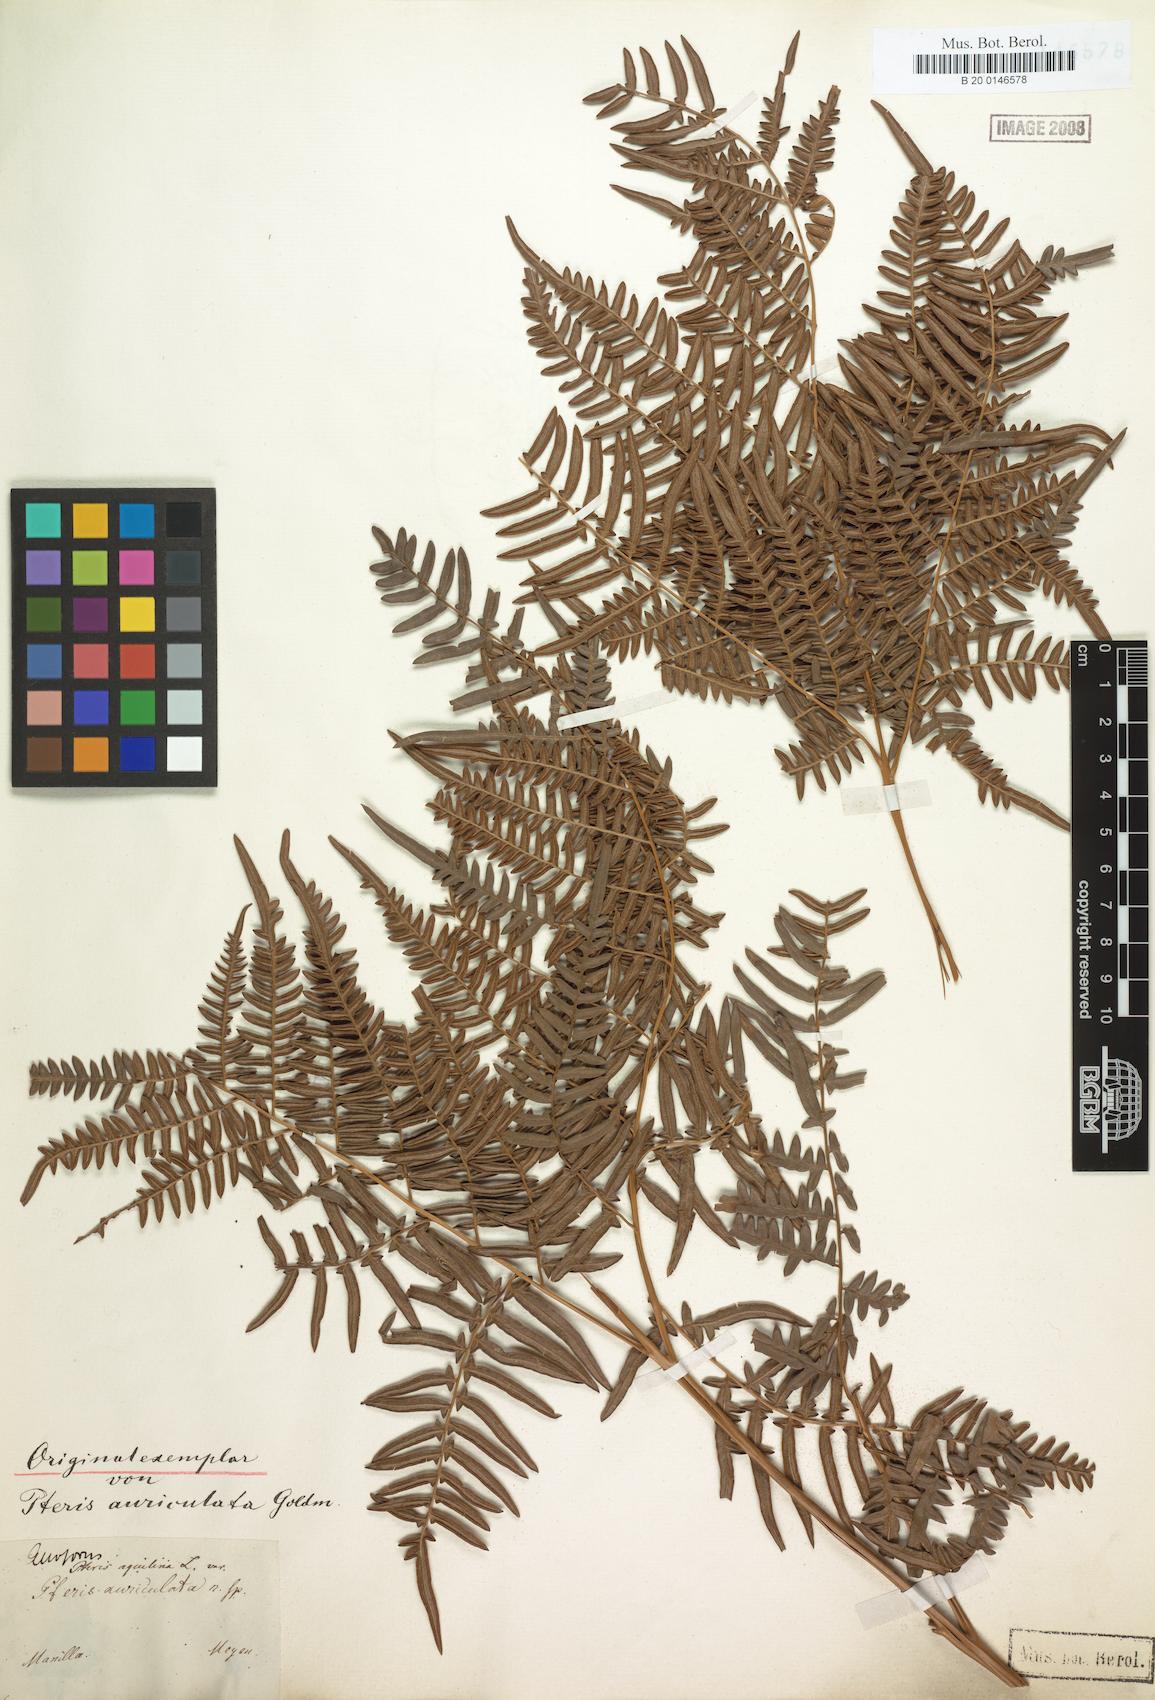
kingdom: Plantae
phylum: Tracheophyta
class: Polypodiopsida
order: Polypodiales
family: Dennstaedtiaceae
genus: Pteridium
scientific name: Pteridium aquilinum
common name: Bracken
